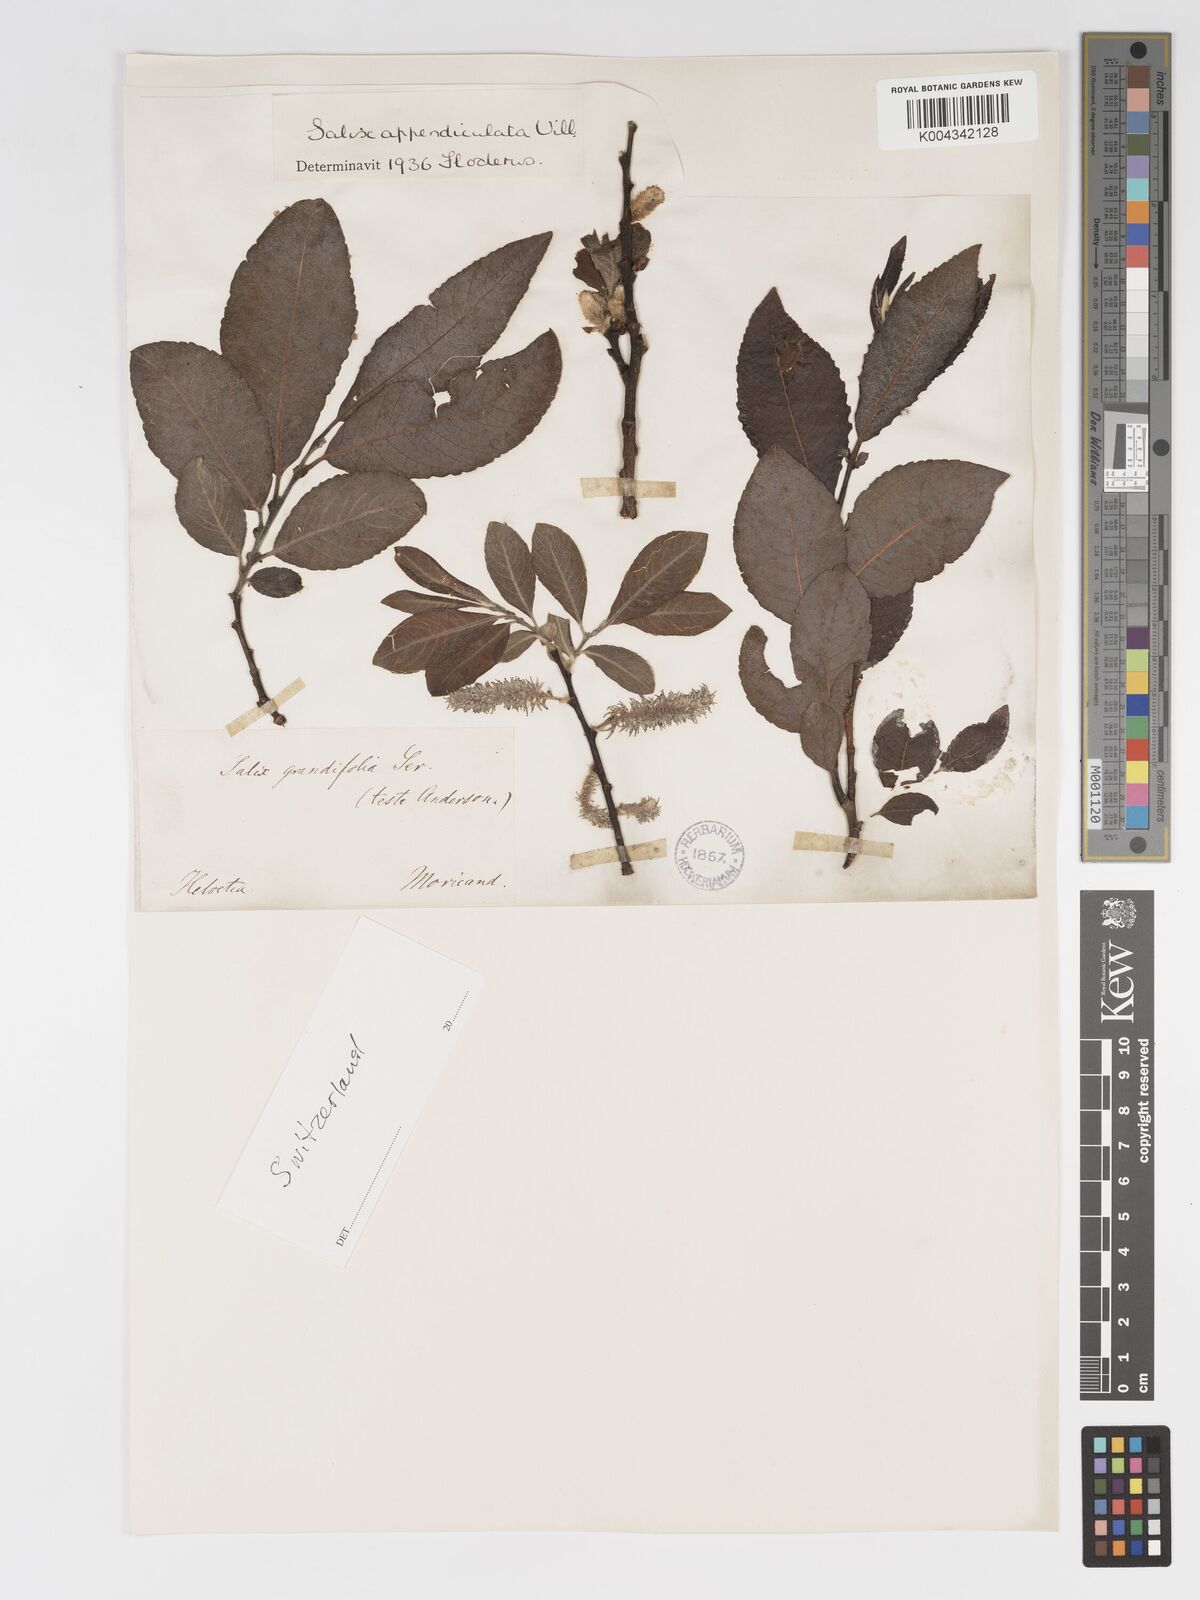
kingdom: Plantae
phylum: Tracheophyta
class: Magnoliopsida
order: Malpighiales
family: Salicaceae
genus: Salix
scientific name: Salix laggeri
